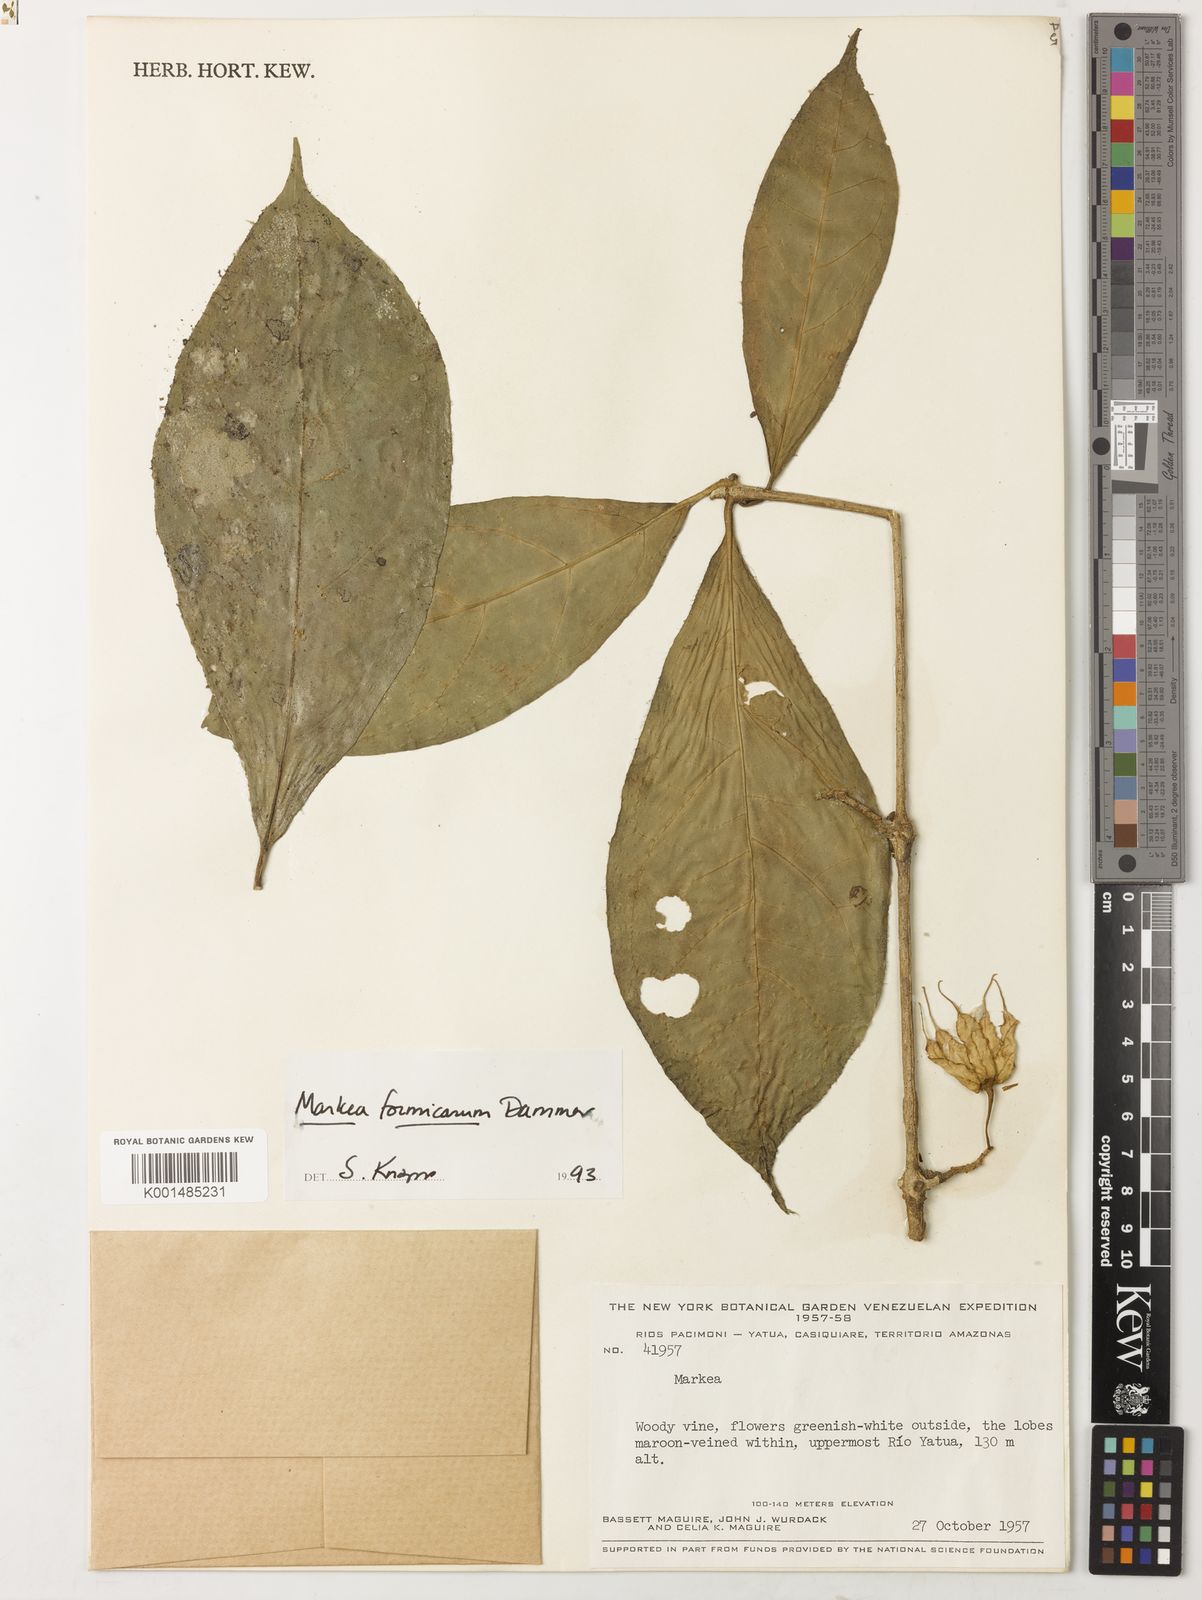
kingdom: Plantae
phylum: Tracheophyta
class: Magnoliopsida
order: Solanales
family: Solanaceae
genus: Markea
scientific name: Markea formicarum
